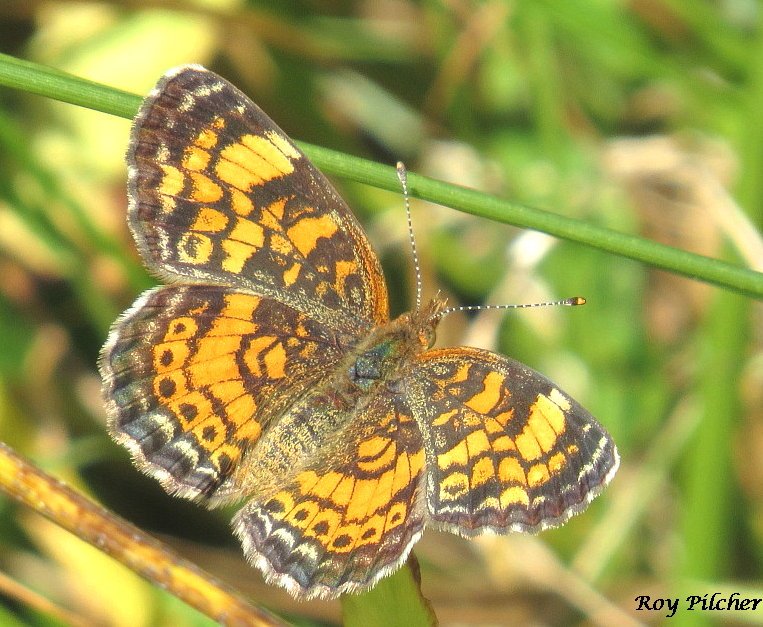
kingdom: Animalia
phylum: Arthropoda
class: Insecta
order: Lepidoptera
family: Nymphalidae
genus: Phyciodes
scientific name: Phyciodes tharos
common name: Pearl Crescent
